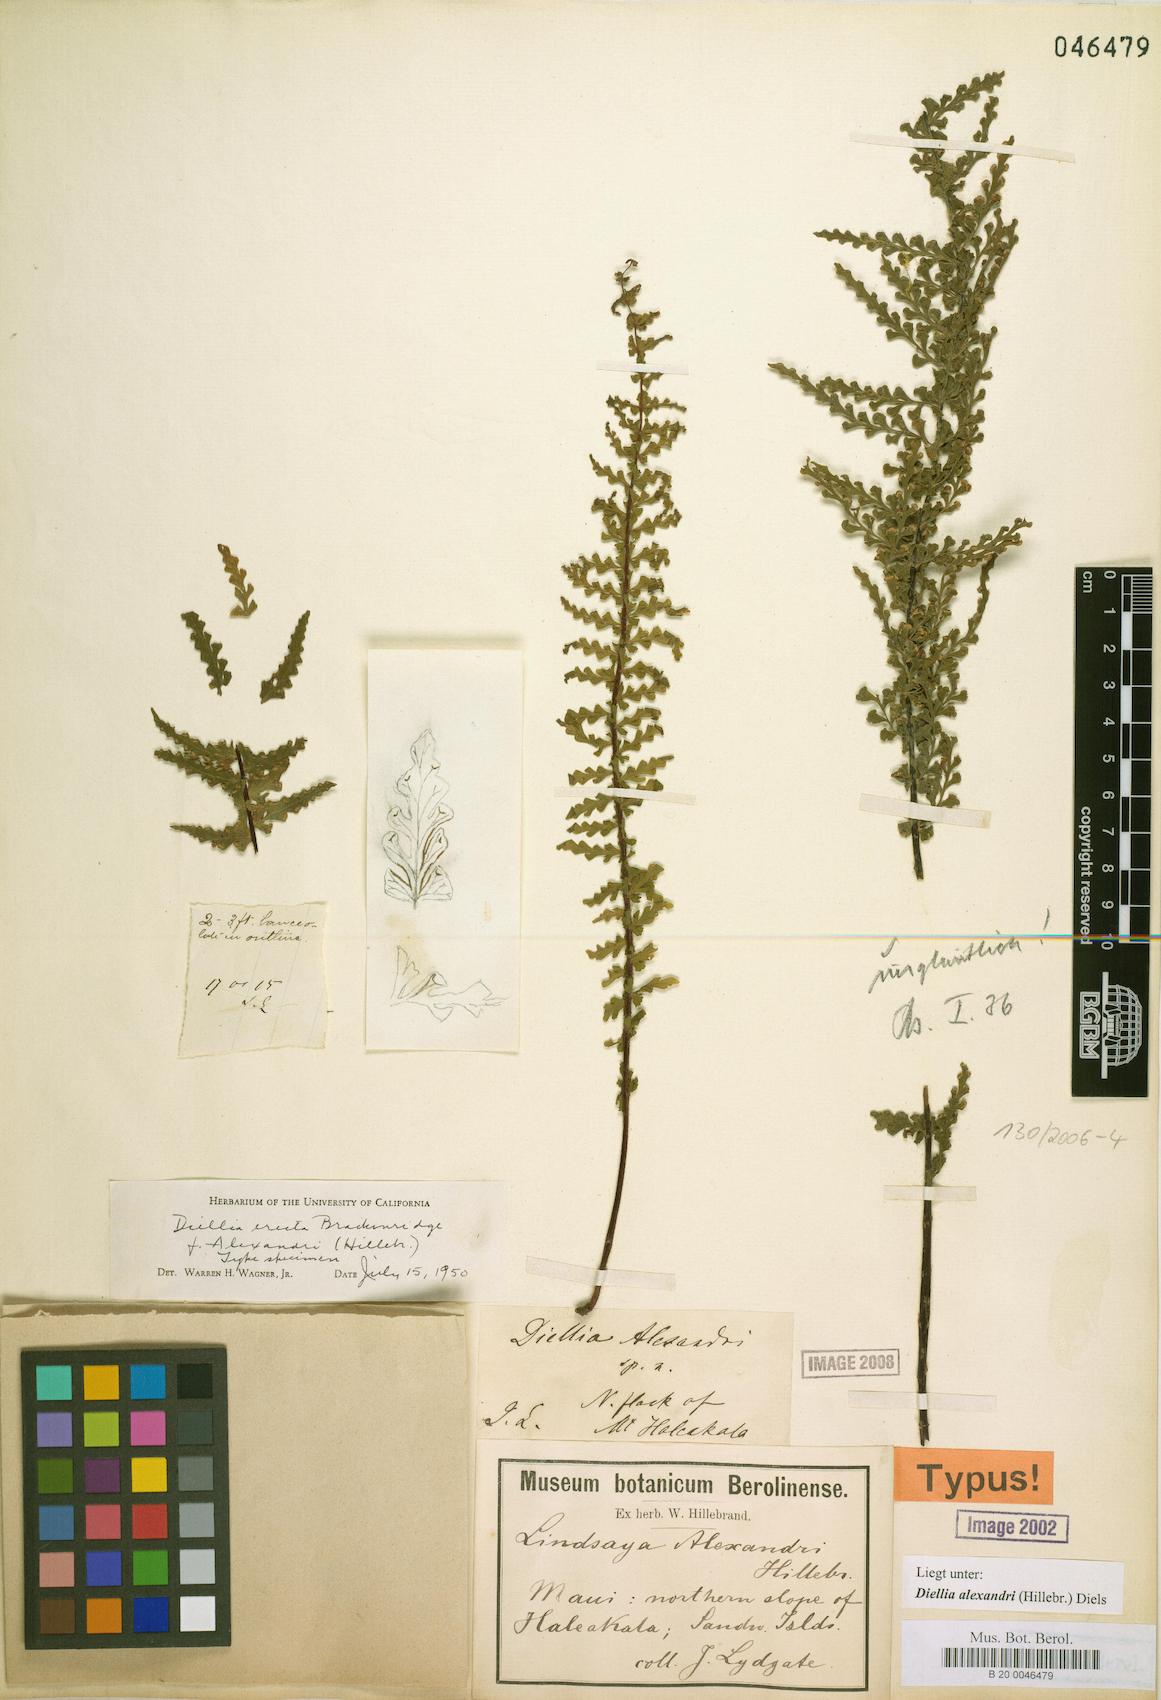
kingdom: Plantae
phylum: Tracheophyta
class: Polypodiopsida
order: Polypodiales
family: Aspleniaceae
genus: Asplenium
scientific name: Asplenium dielerectum
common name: Erect island spleenwort
